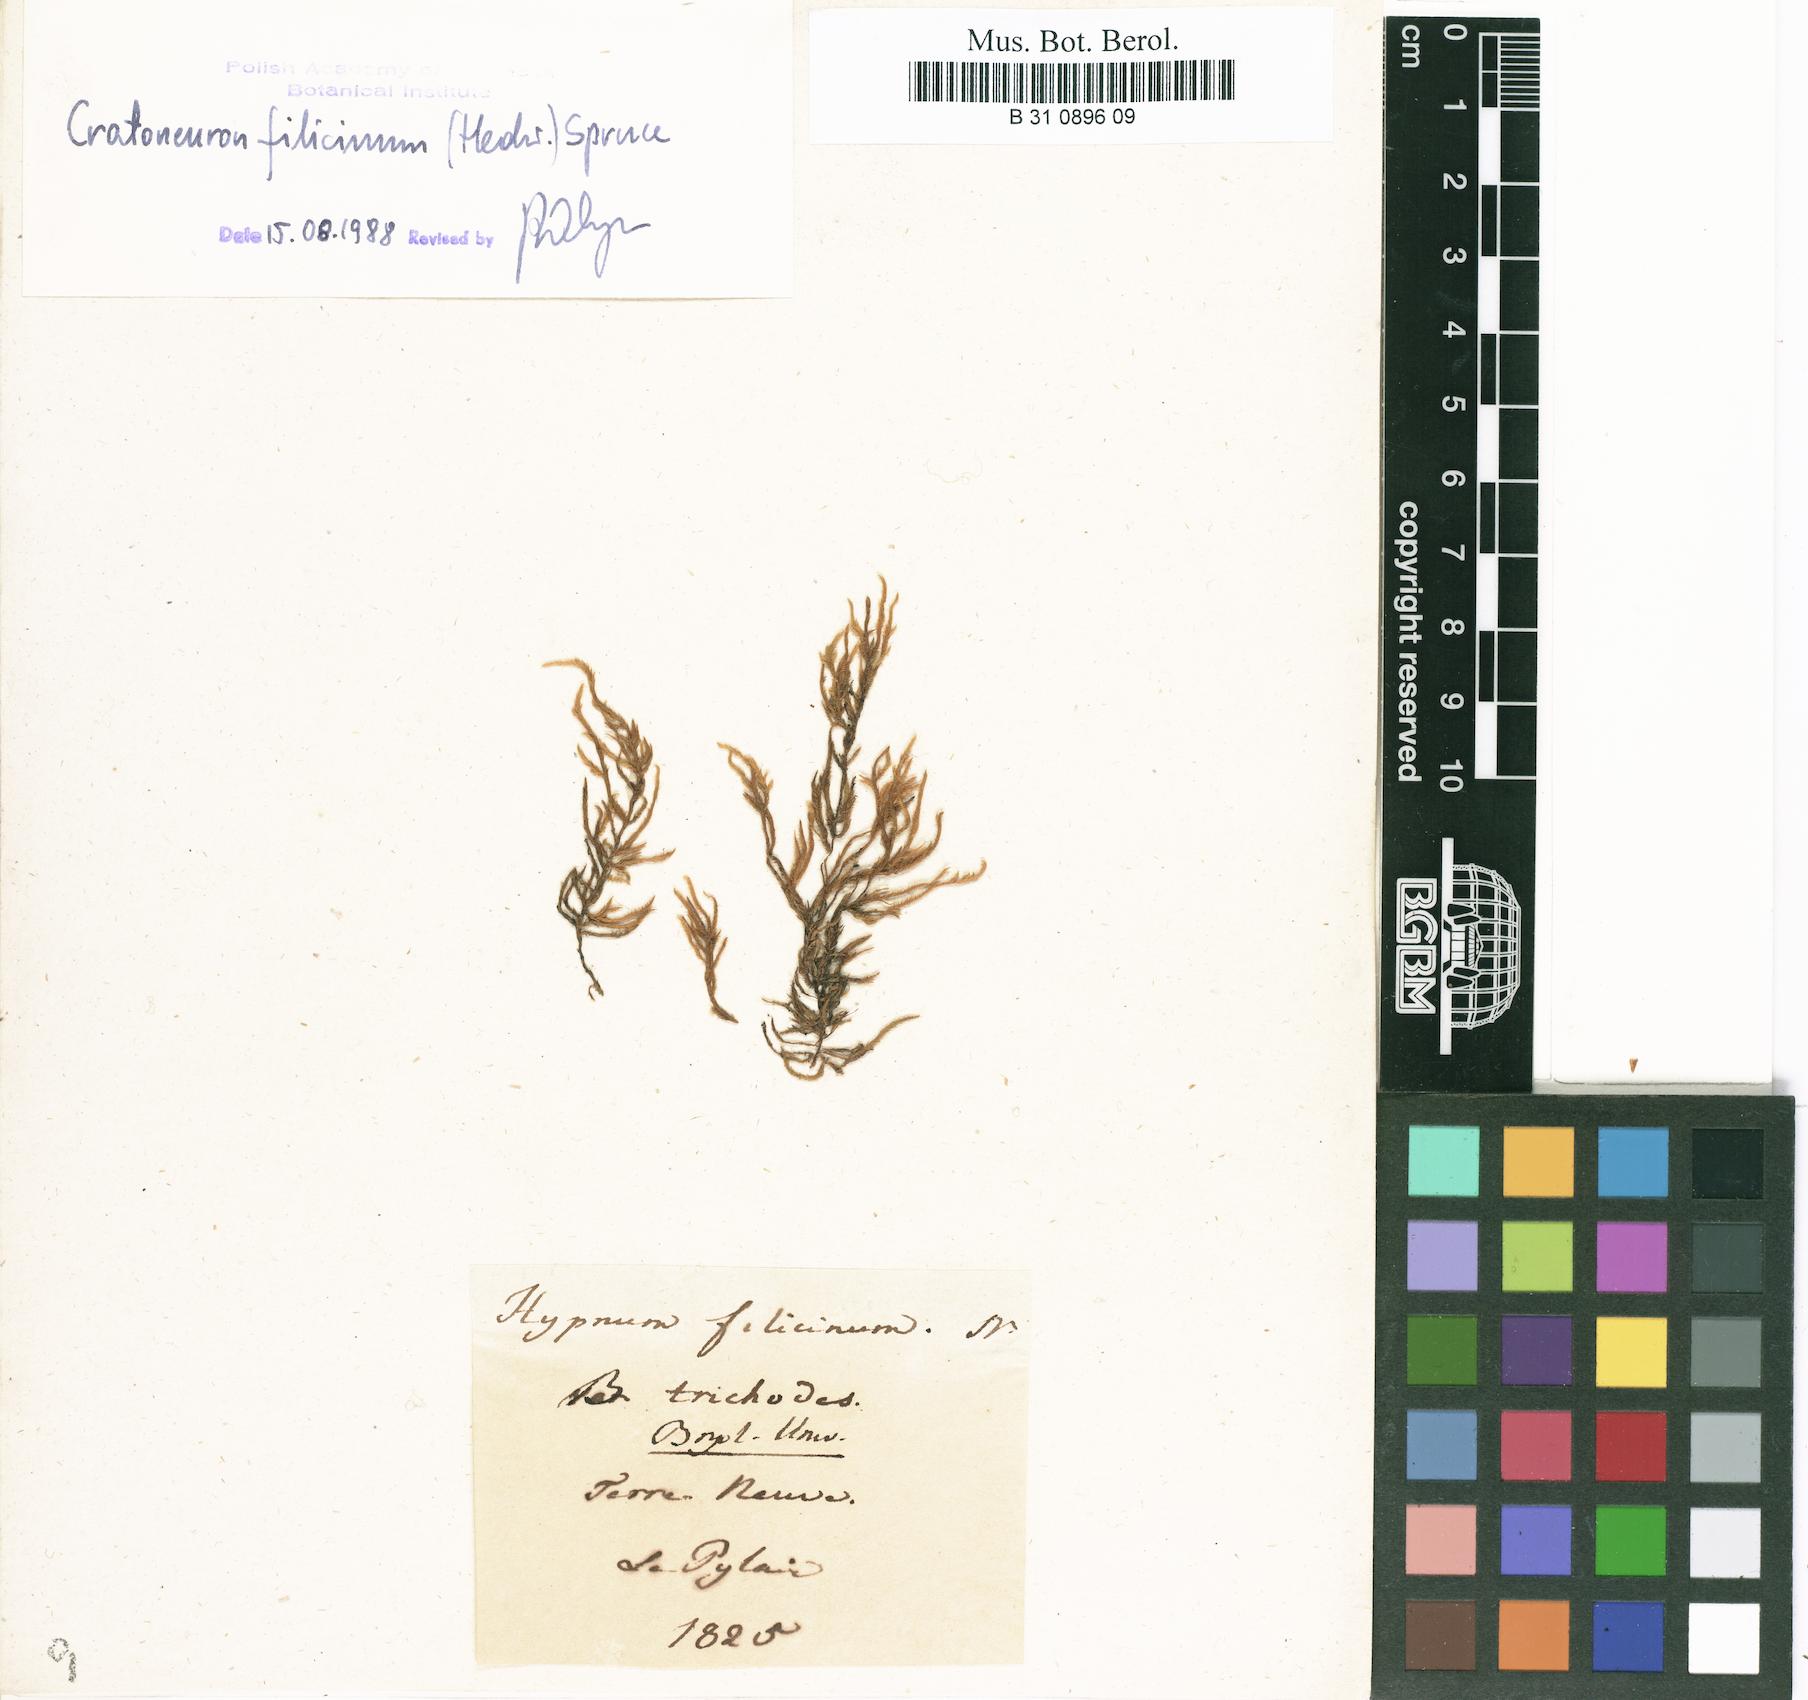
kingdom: Plantae
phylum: Bryophyta
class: Bryopsida
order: Hypnales
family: Amblystegiaceae
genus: Cratoneuron
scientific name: Cratoneuron filicinum
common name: Fern-leaved hook moss
